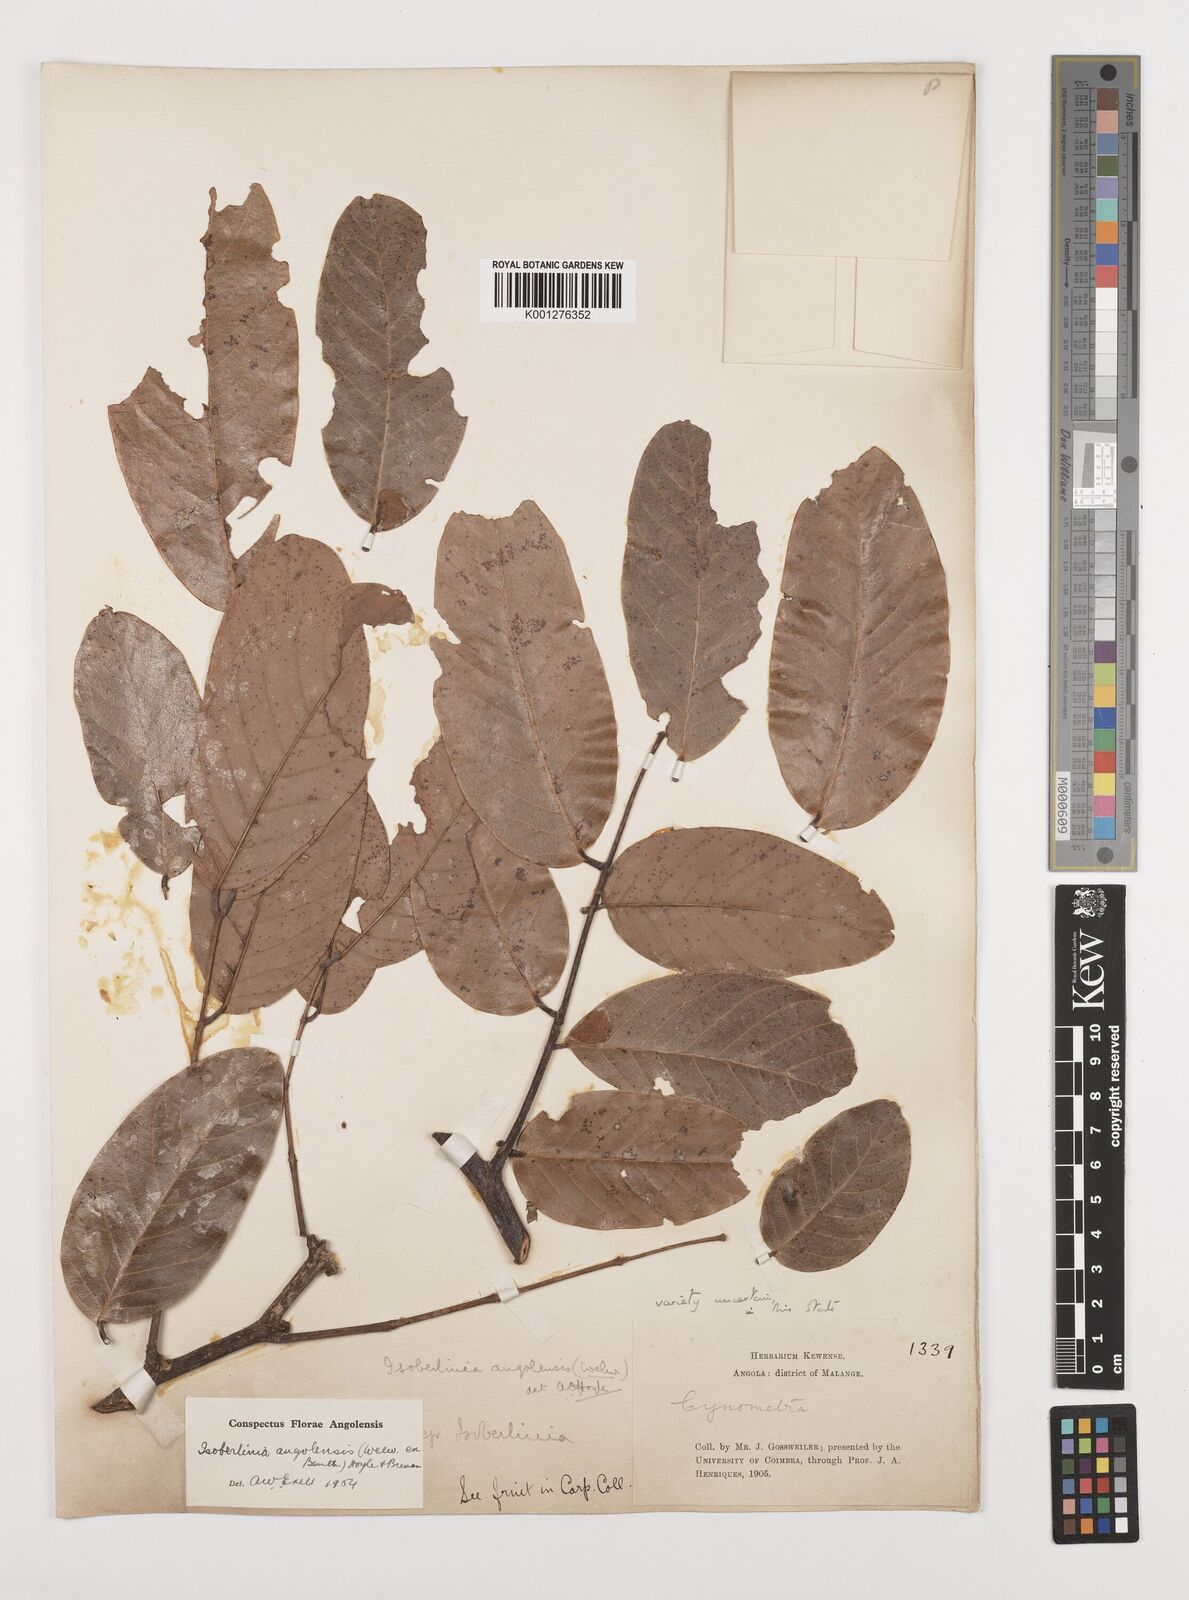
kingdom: Plantae
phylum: Tracheophyta
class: Magnoliopsida
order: Fabales
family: Fabaceae
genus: Isoberlinia
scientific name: Isoberlinia angolensis
